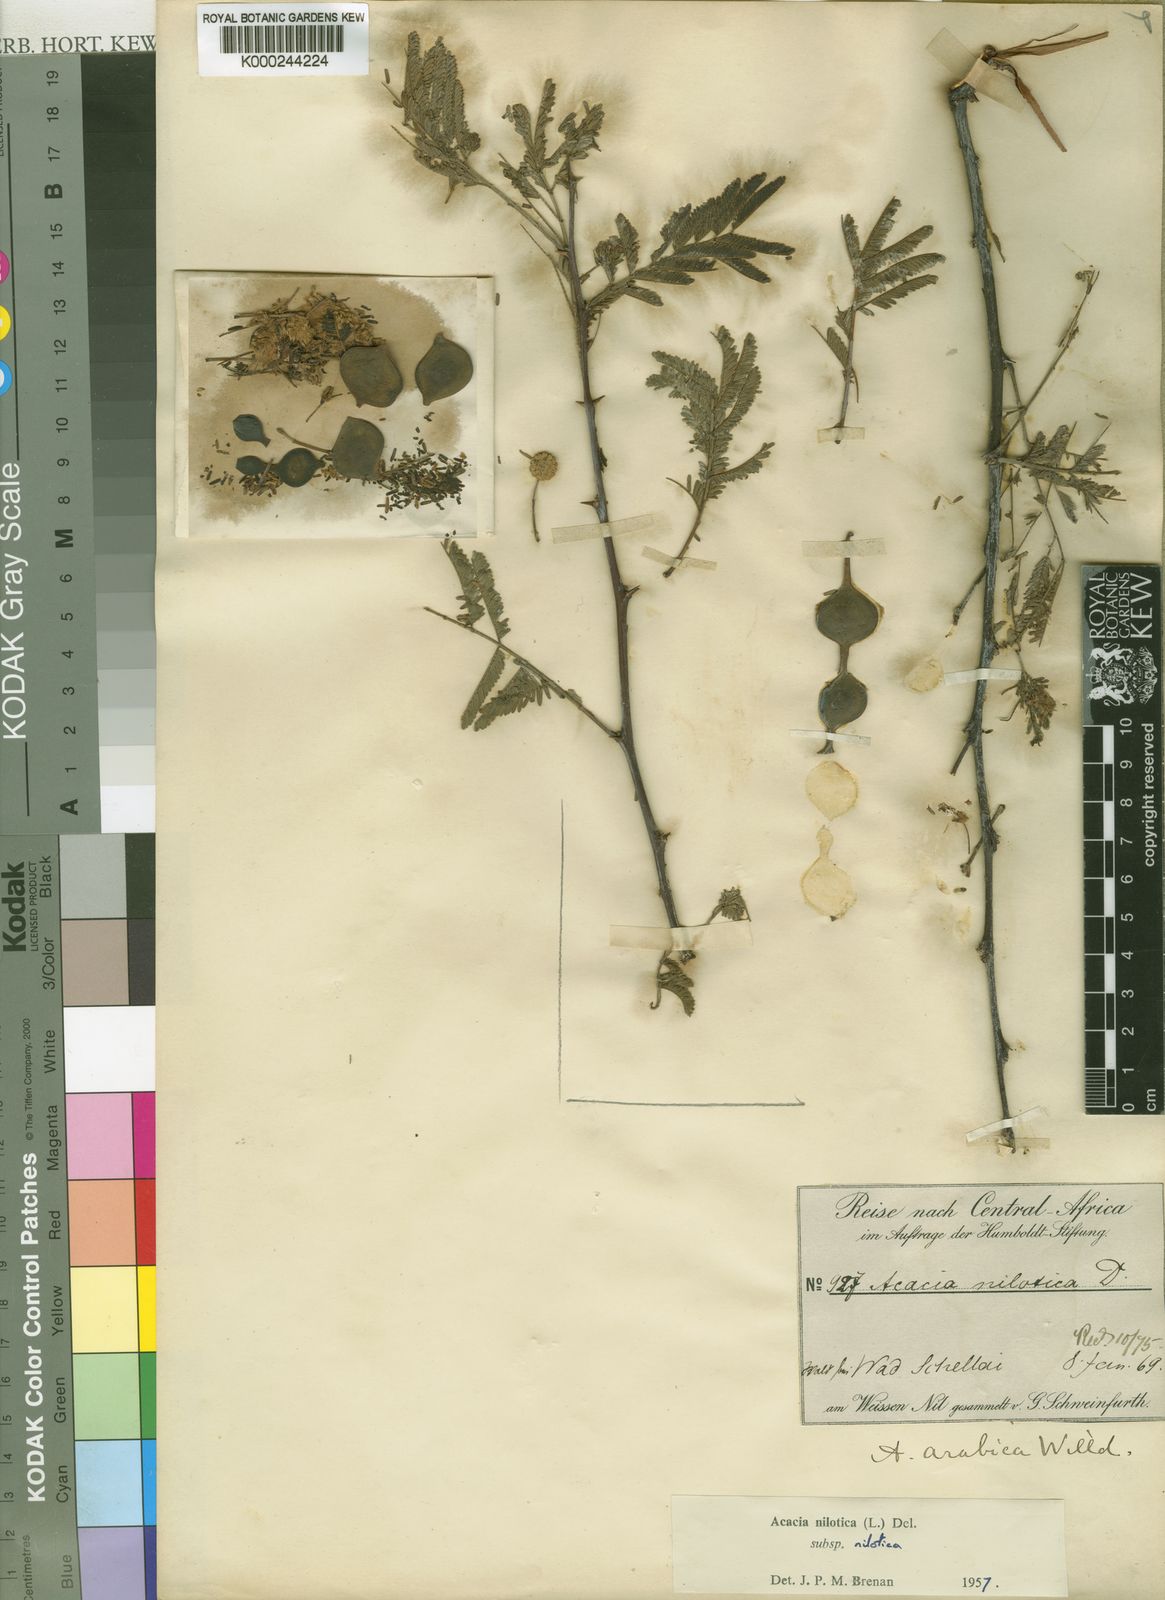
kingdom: Plantae
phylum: Tracheophyta
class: Magnoliopsida
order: Fabales
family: Fabaceae
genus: Vachellia
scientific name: Vachellia nilotica
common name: Arabic gumtree
